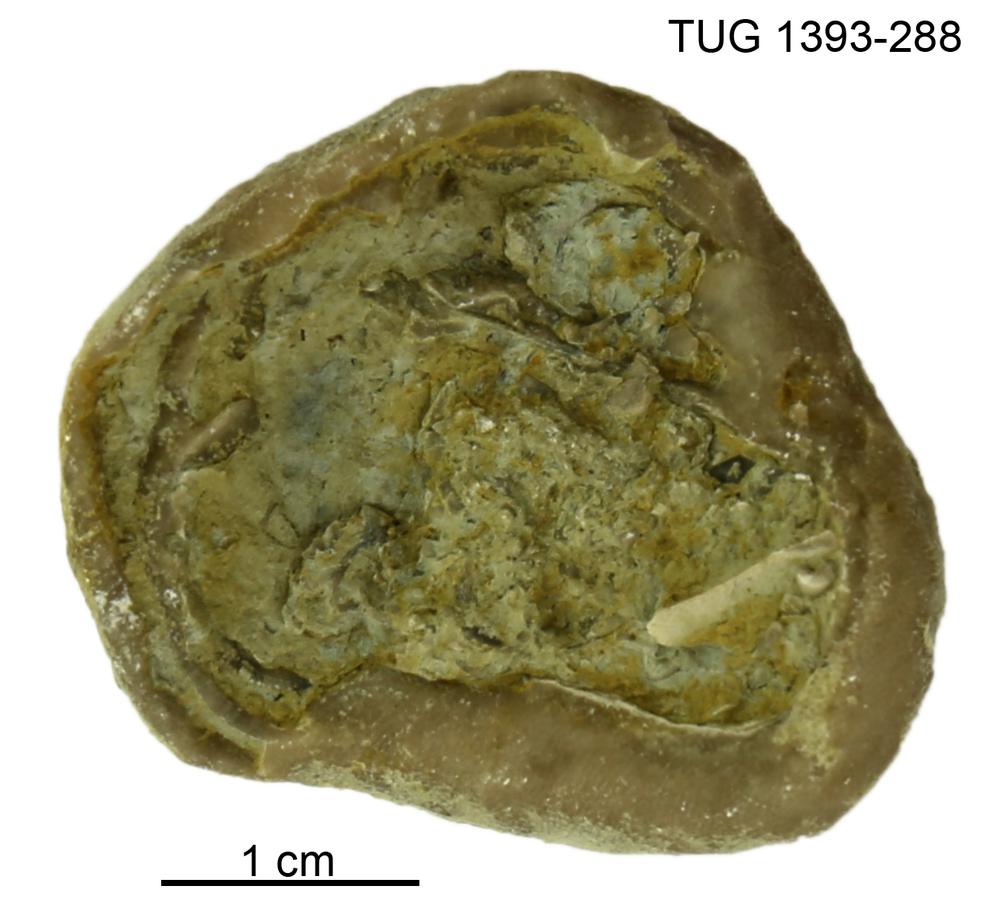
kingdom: Animalia
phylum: Bryozoa
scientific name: Bryozoa
